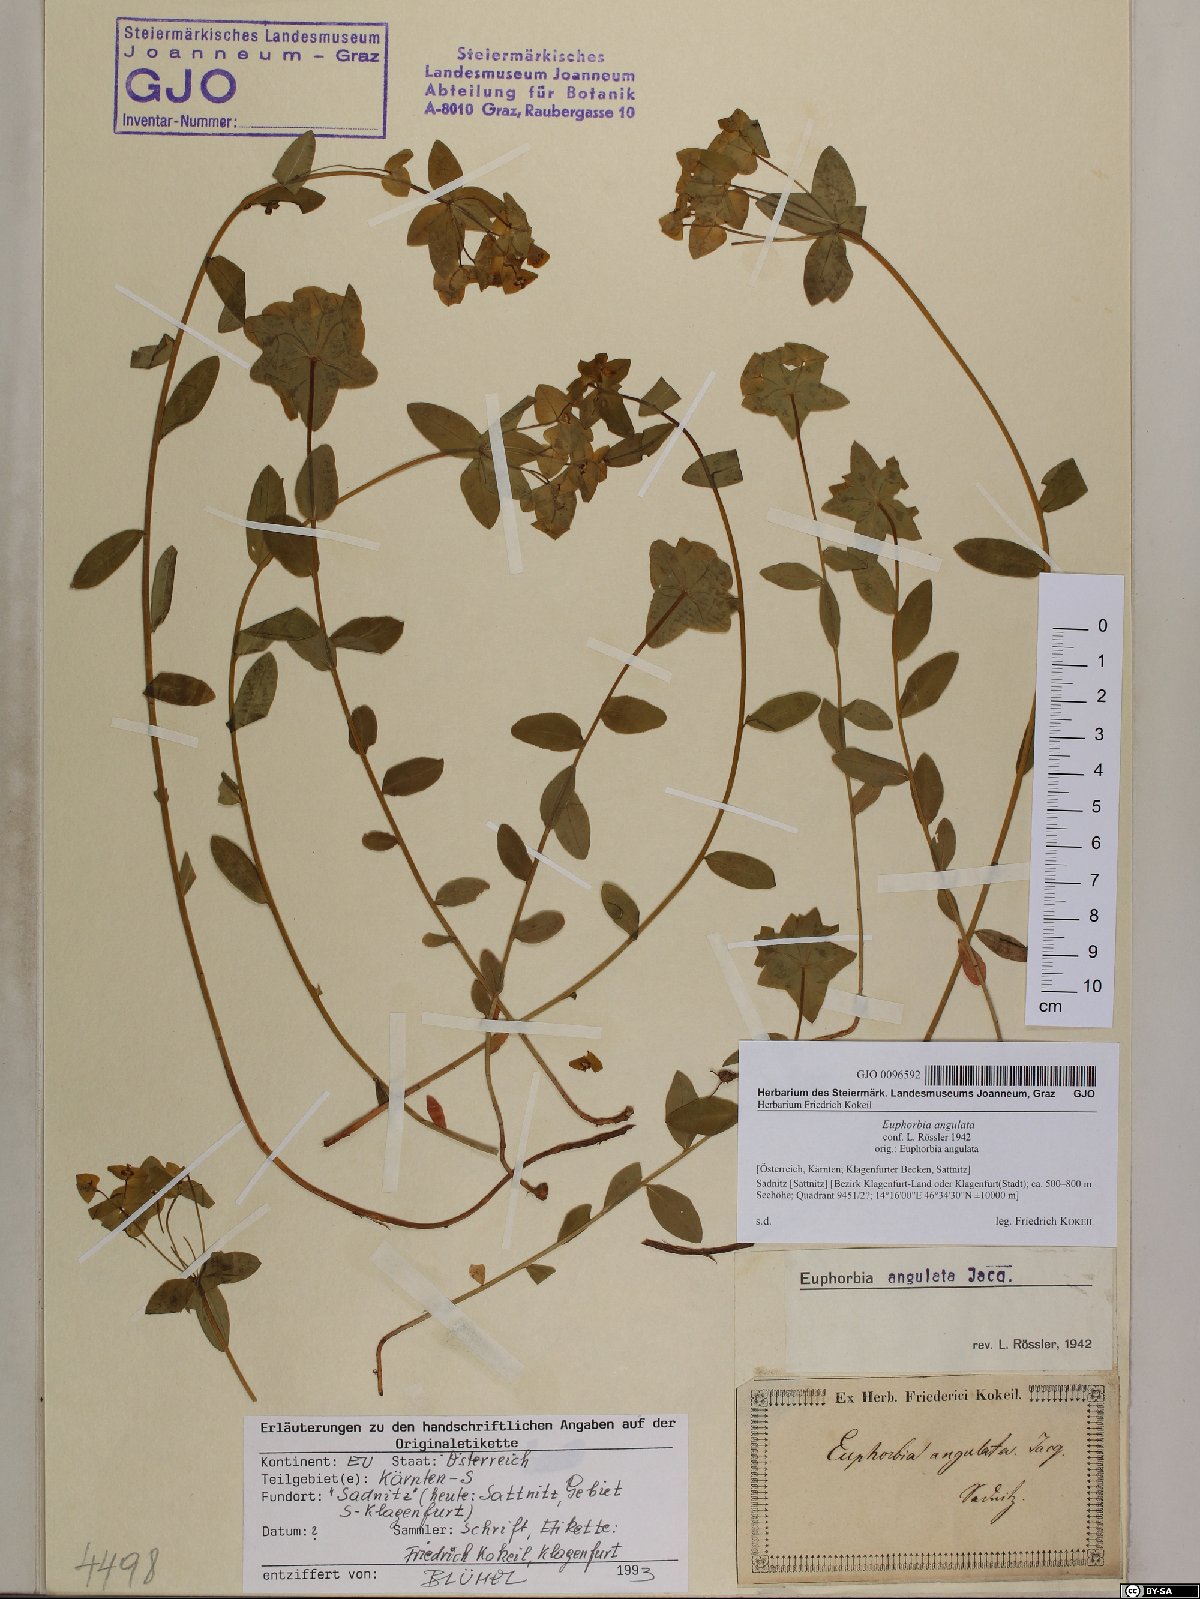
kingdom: Plantae
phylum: Tracheophyta
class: Magnoliopsida
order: Malpighiales
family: Euphorbiaceae
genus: Euphorbia
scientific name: Euphorbia angulata
